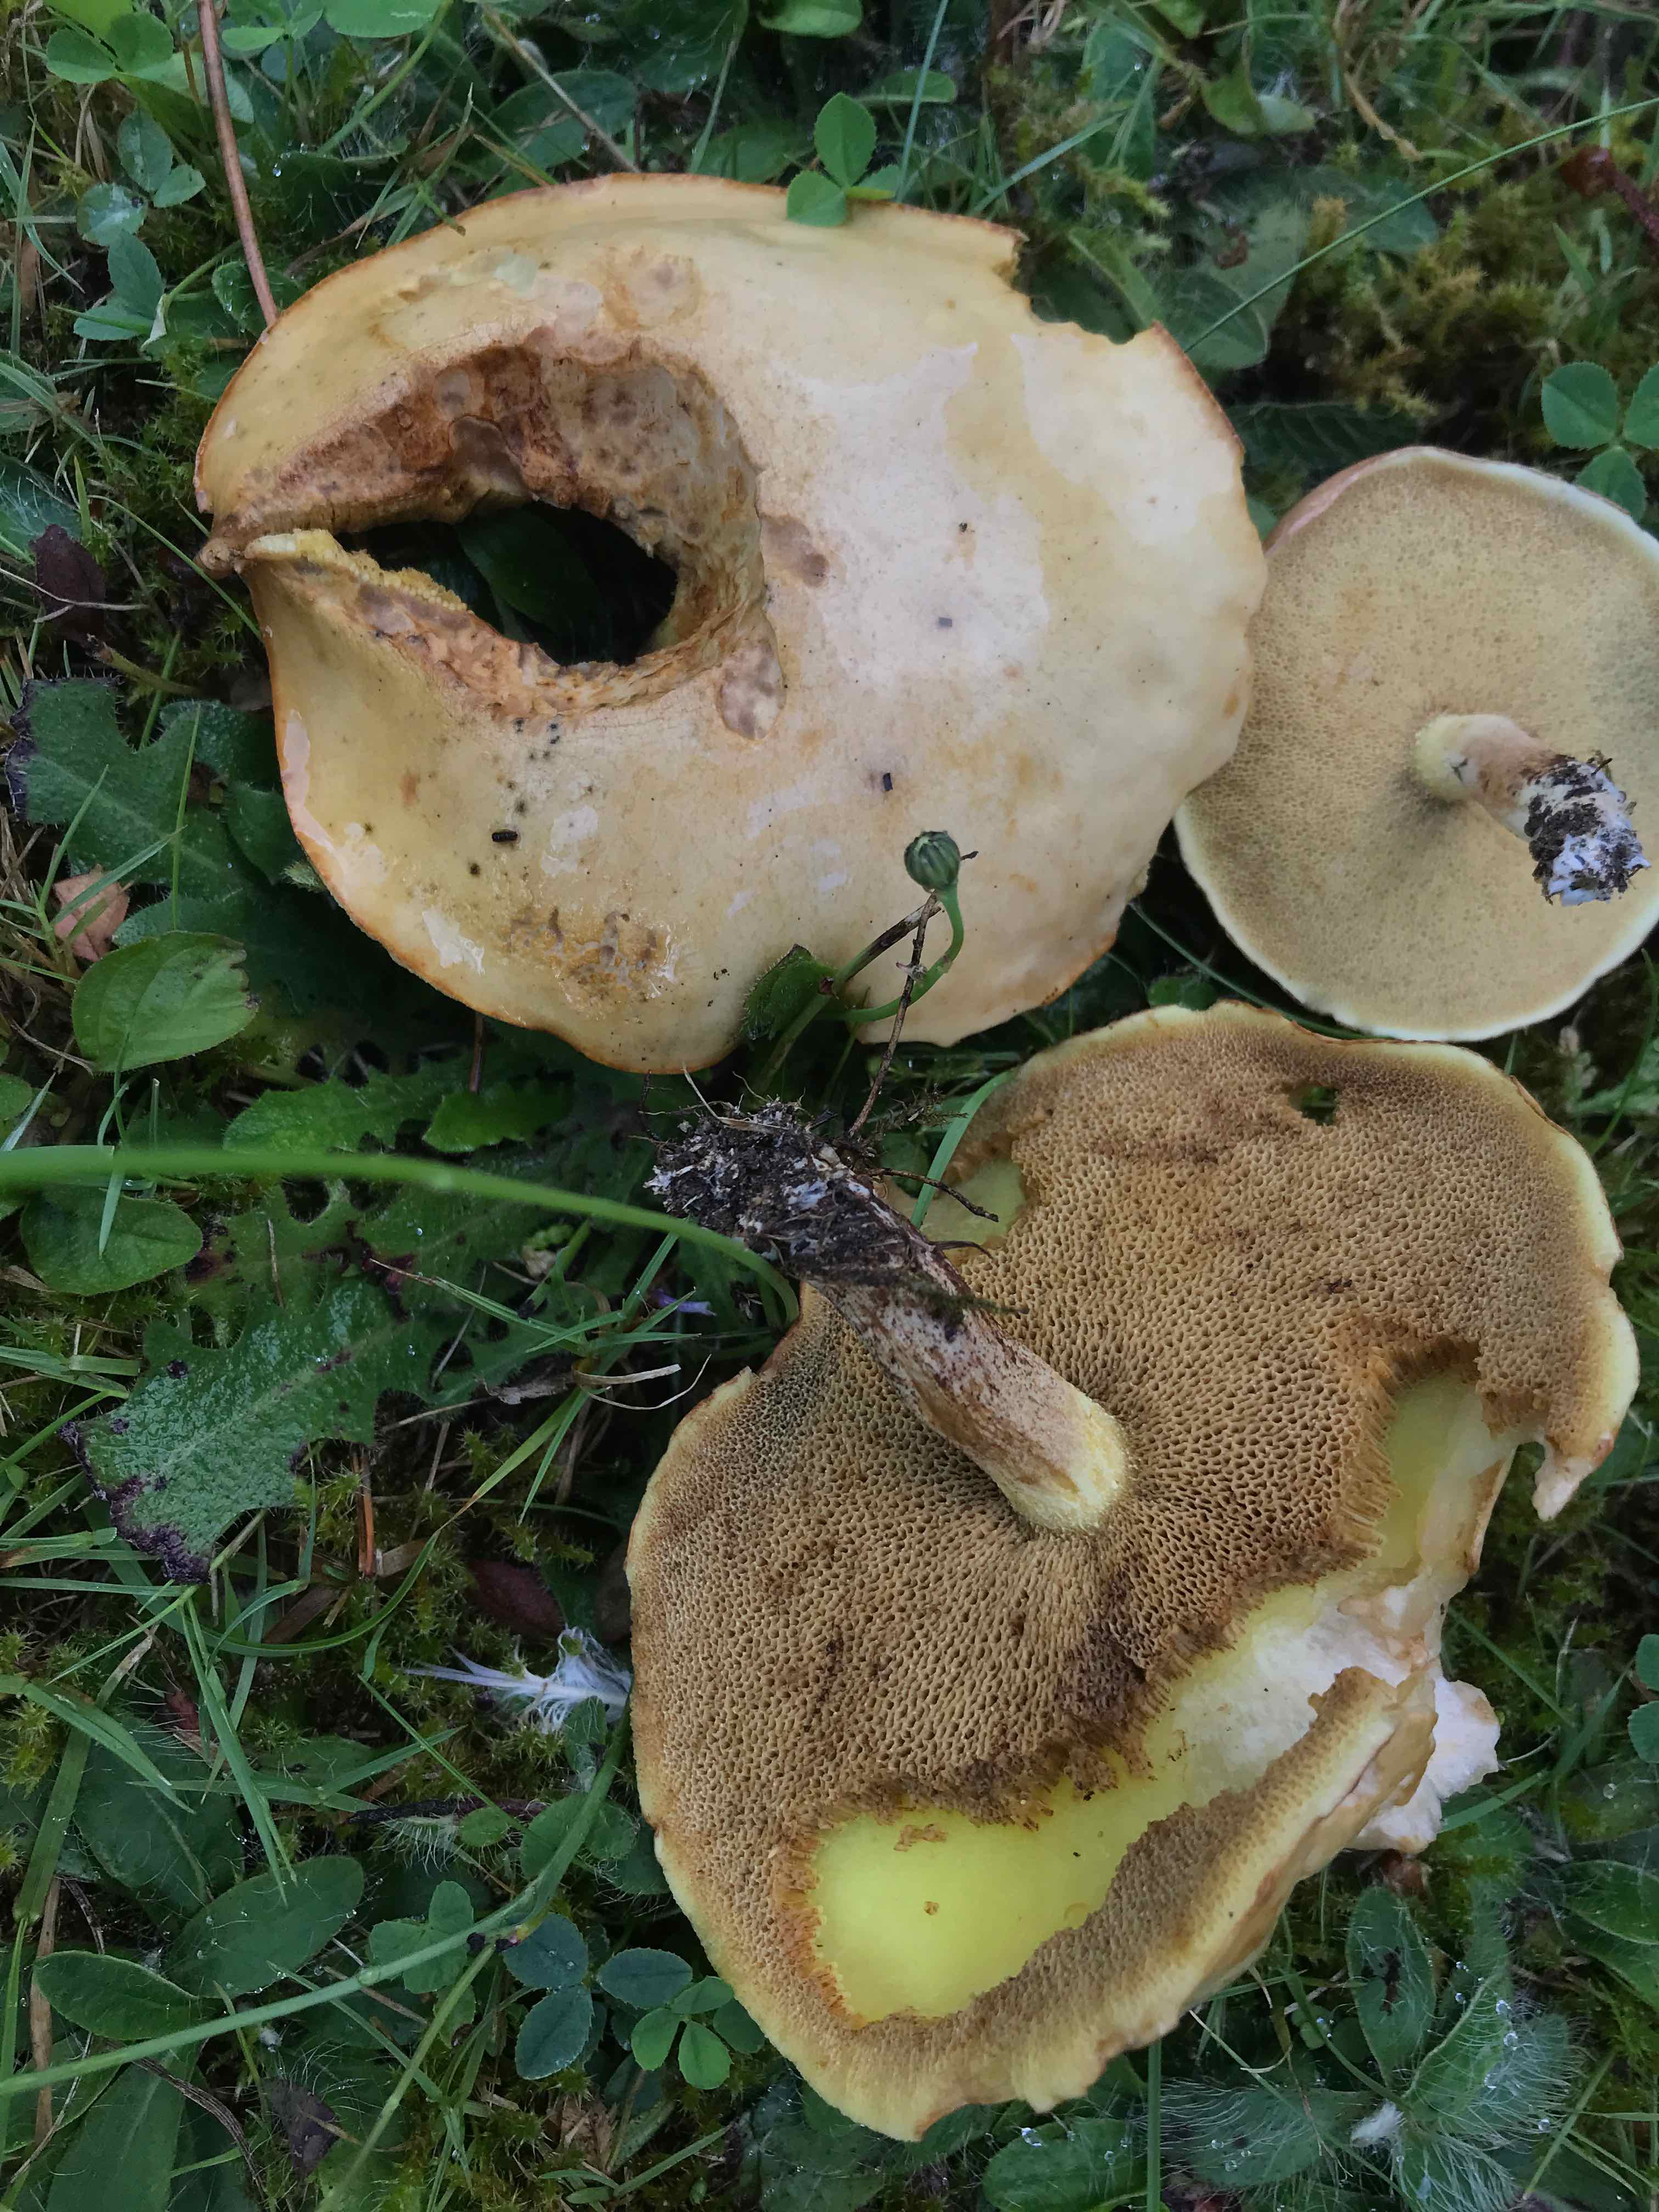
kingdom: Fungi
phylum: Basidiomycota
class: Agaricomycetes
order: Boletales
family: Suillaceae
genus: Suillus
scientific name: Suillus granulatus
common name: kornet slimrørhat
